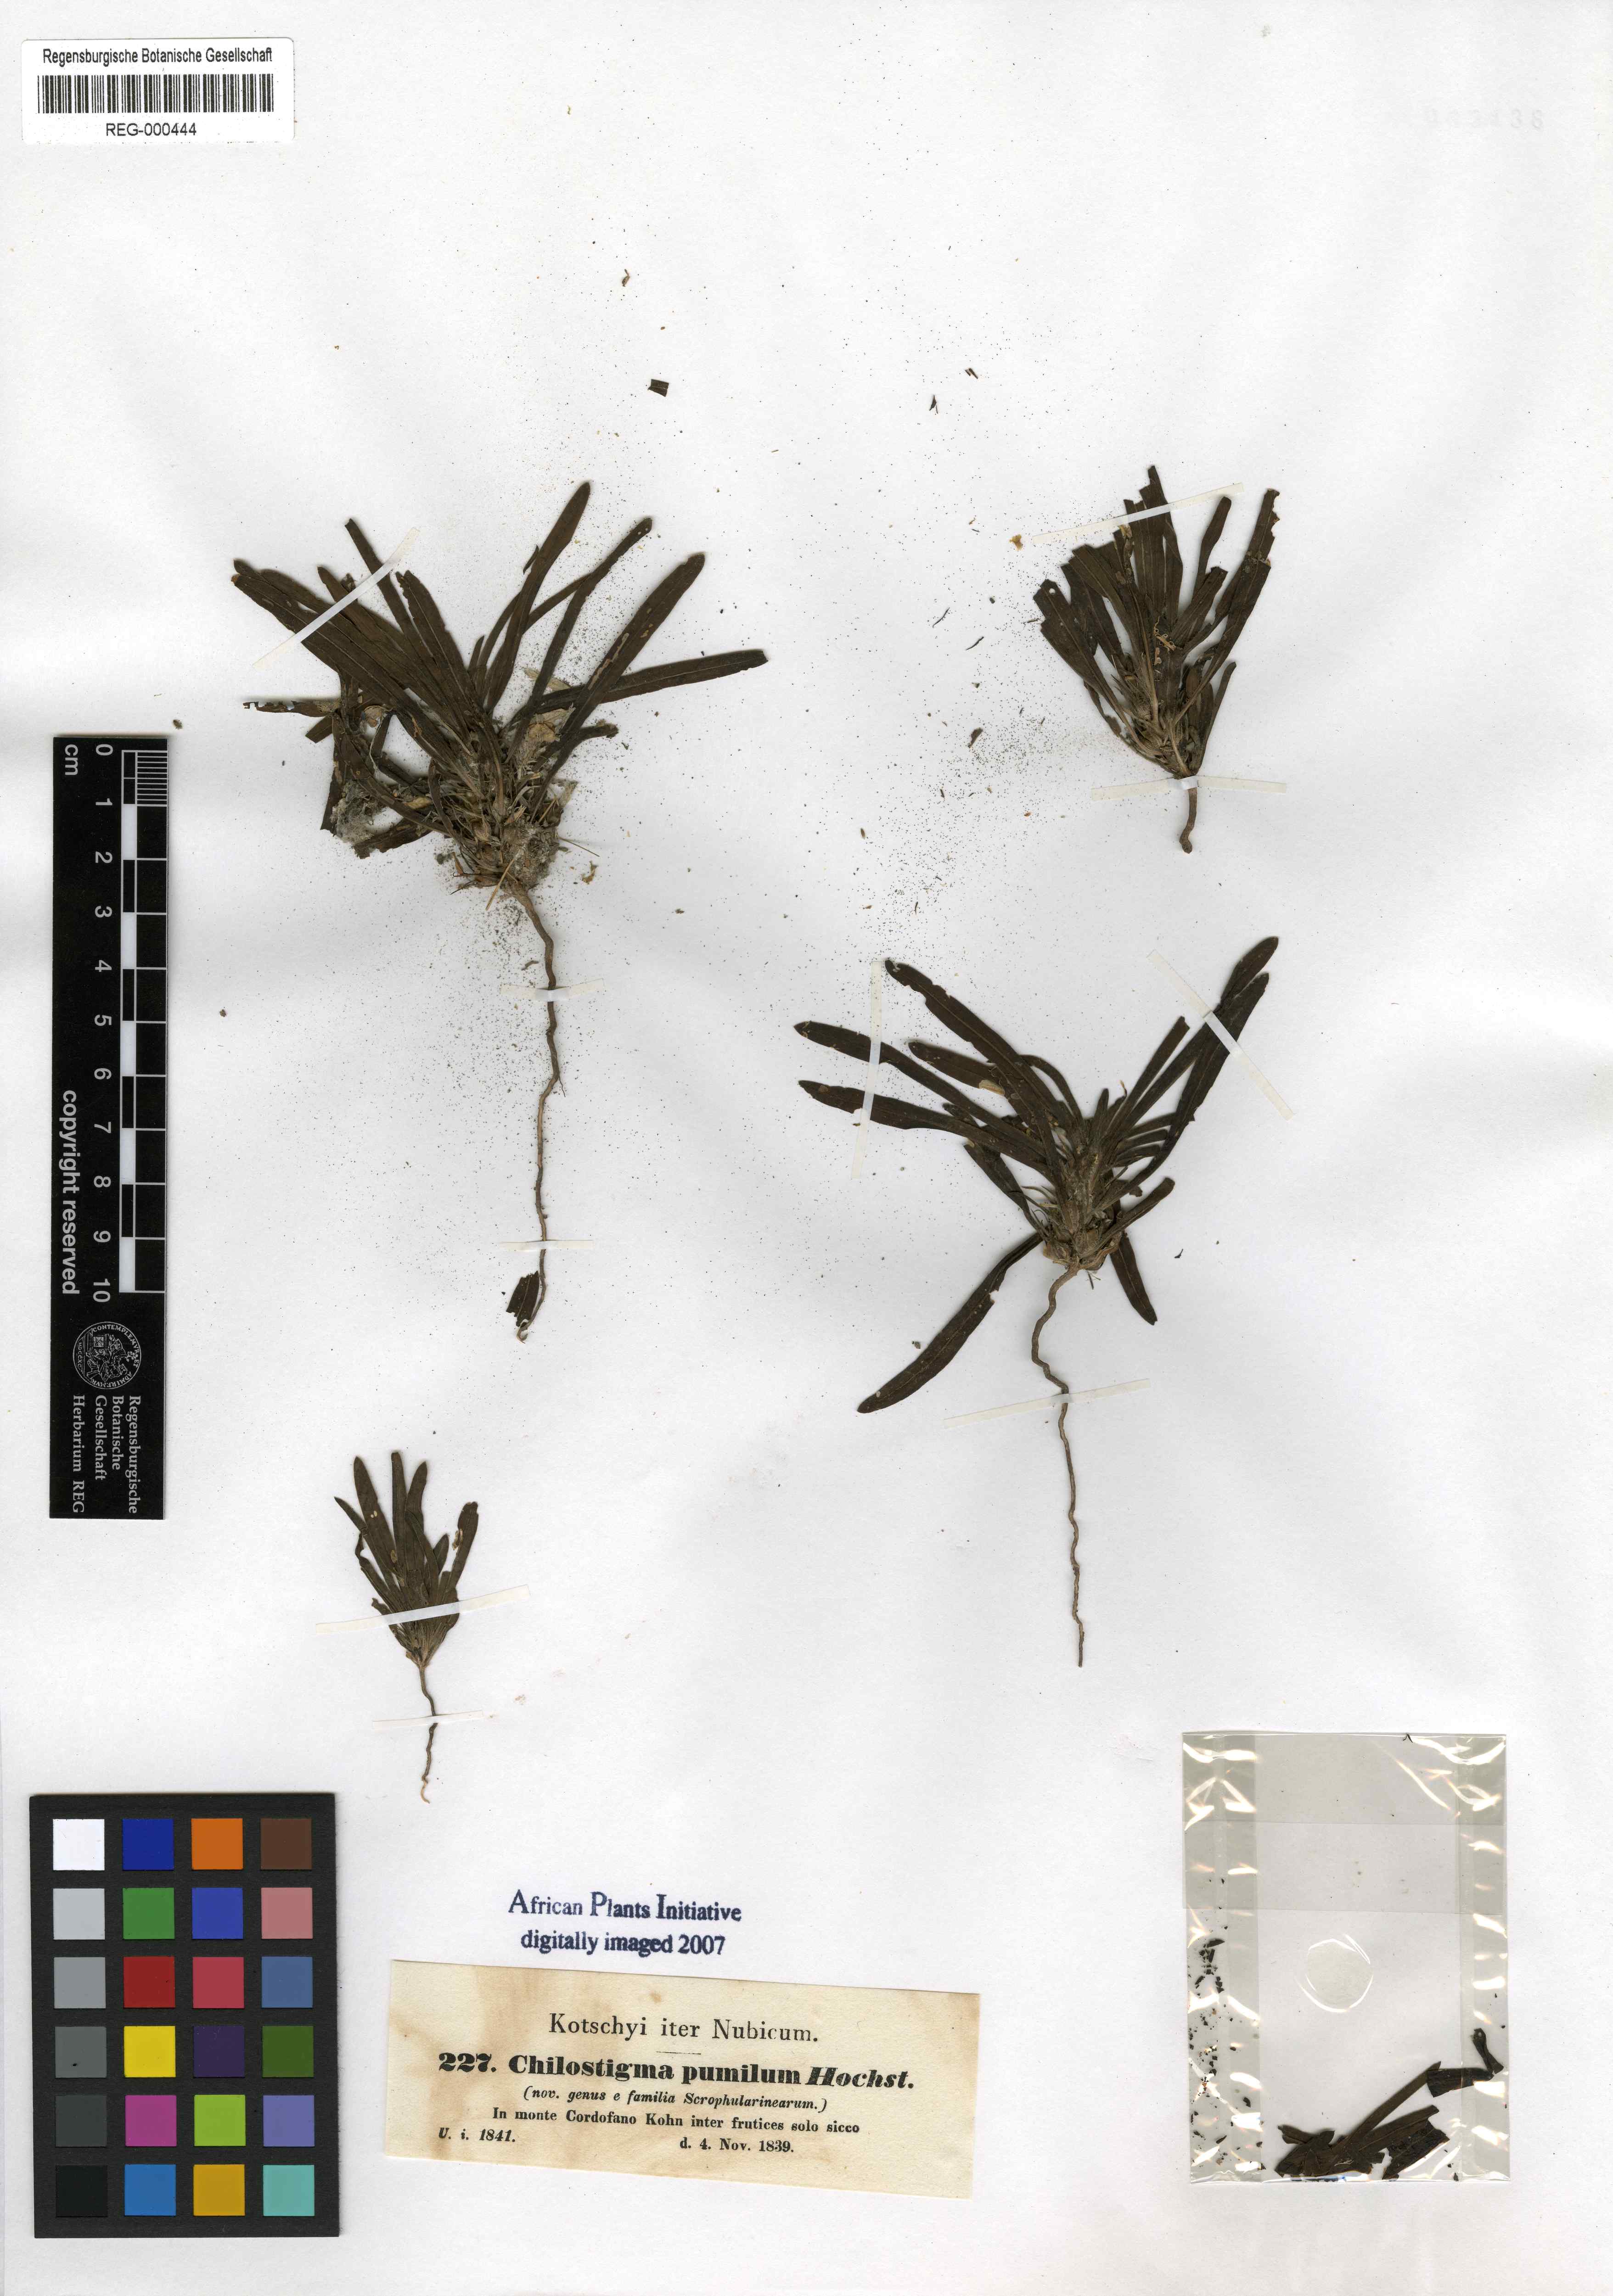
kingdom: Plantae
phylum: Tracheophyta
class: Magnoliopsida
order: Lamiales
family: Scrophulariaceae
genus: Aptosimum
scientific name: Aptosimum pumilum
